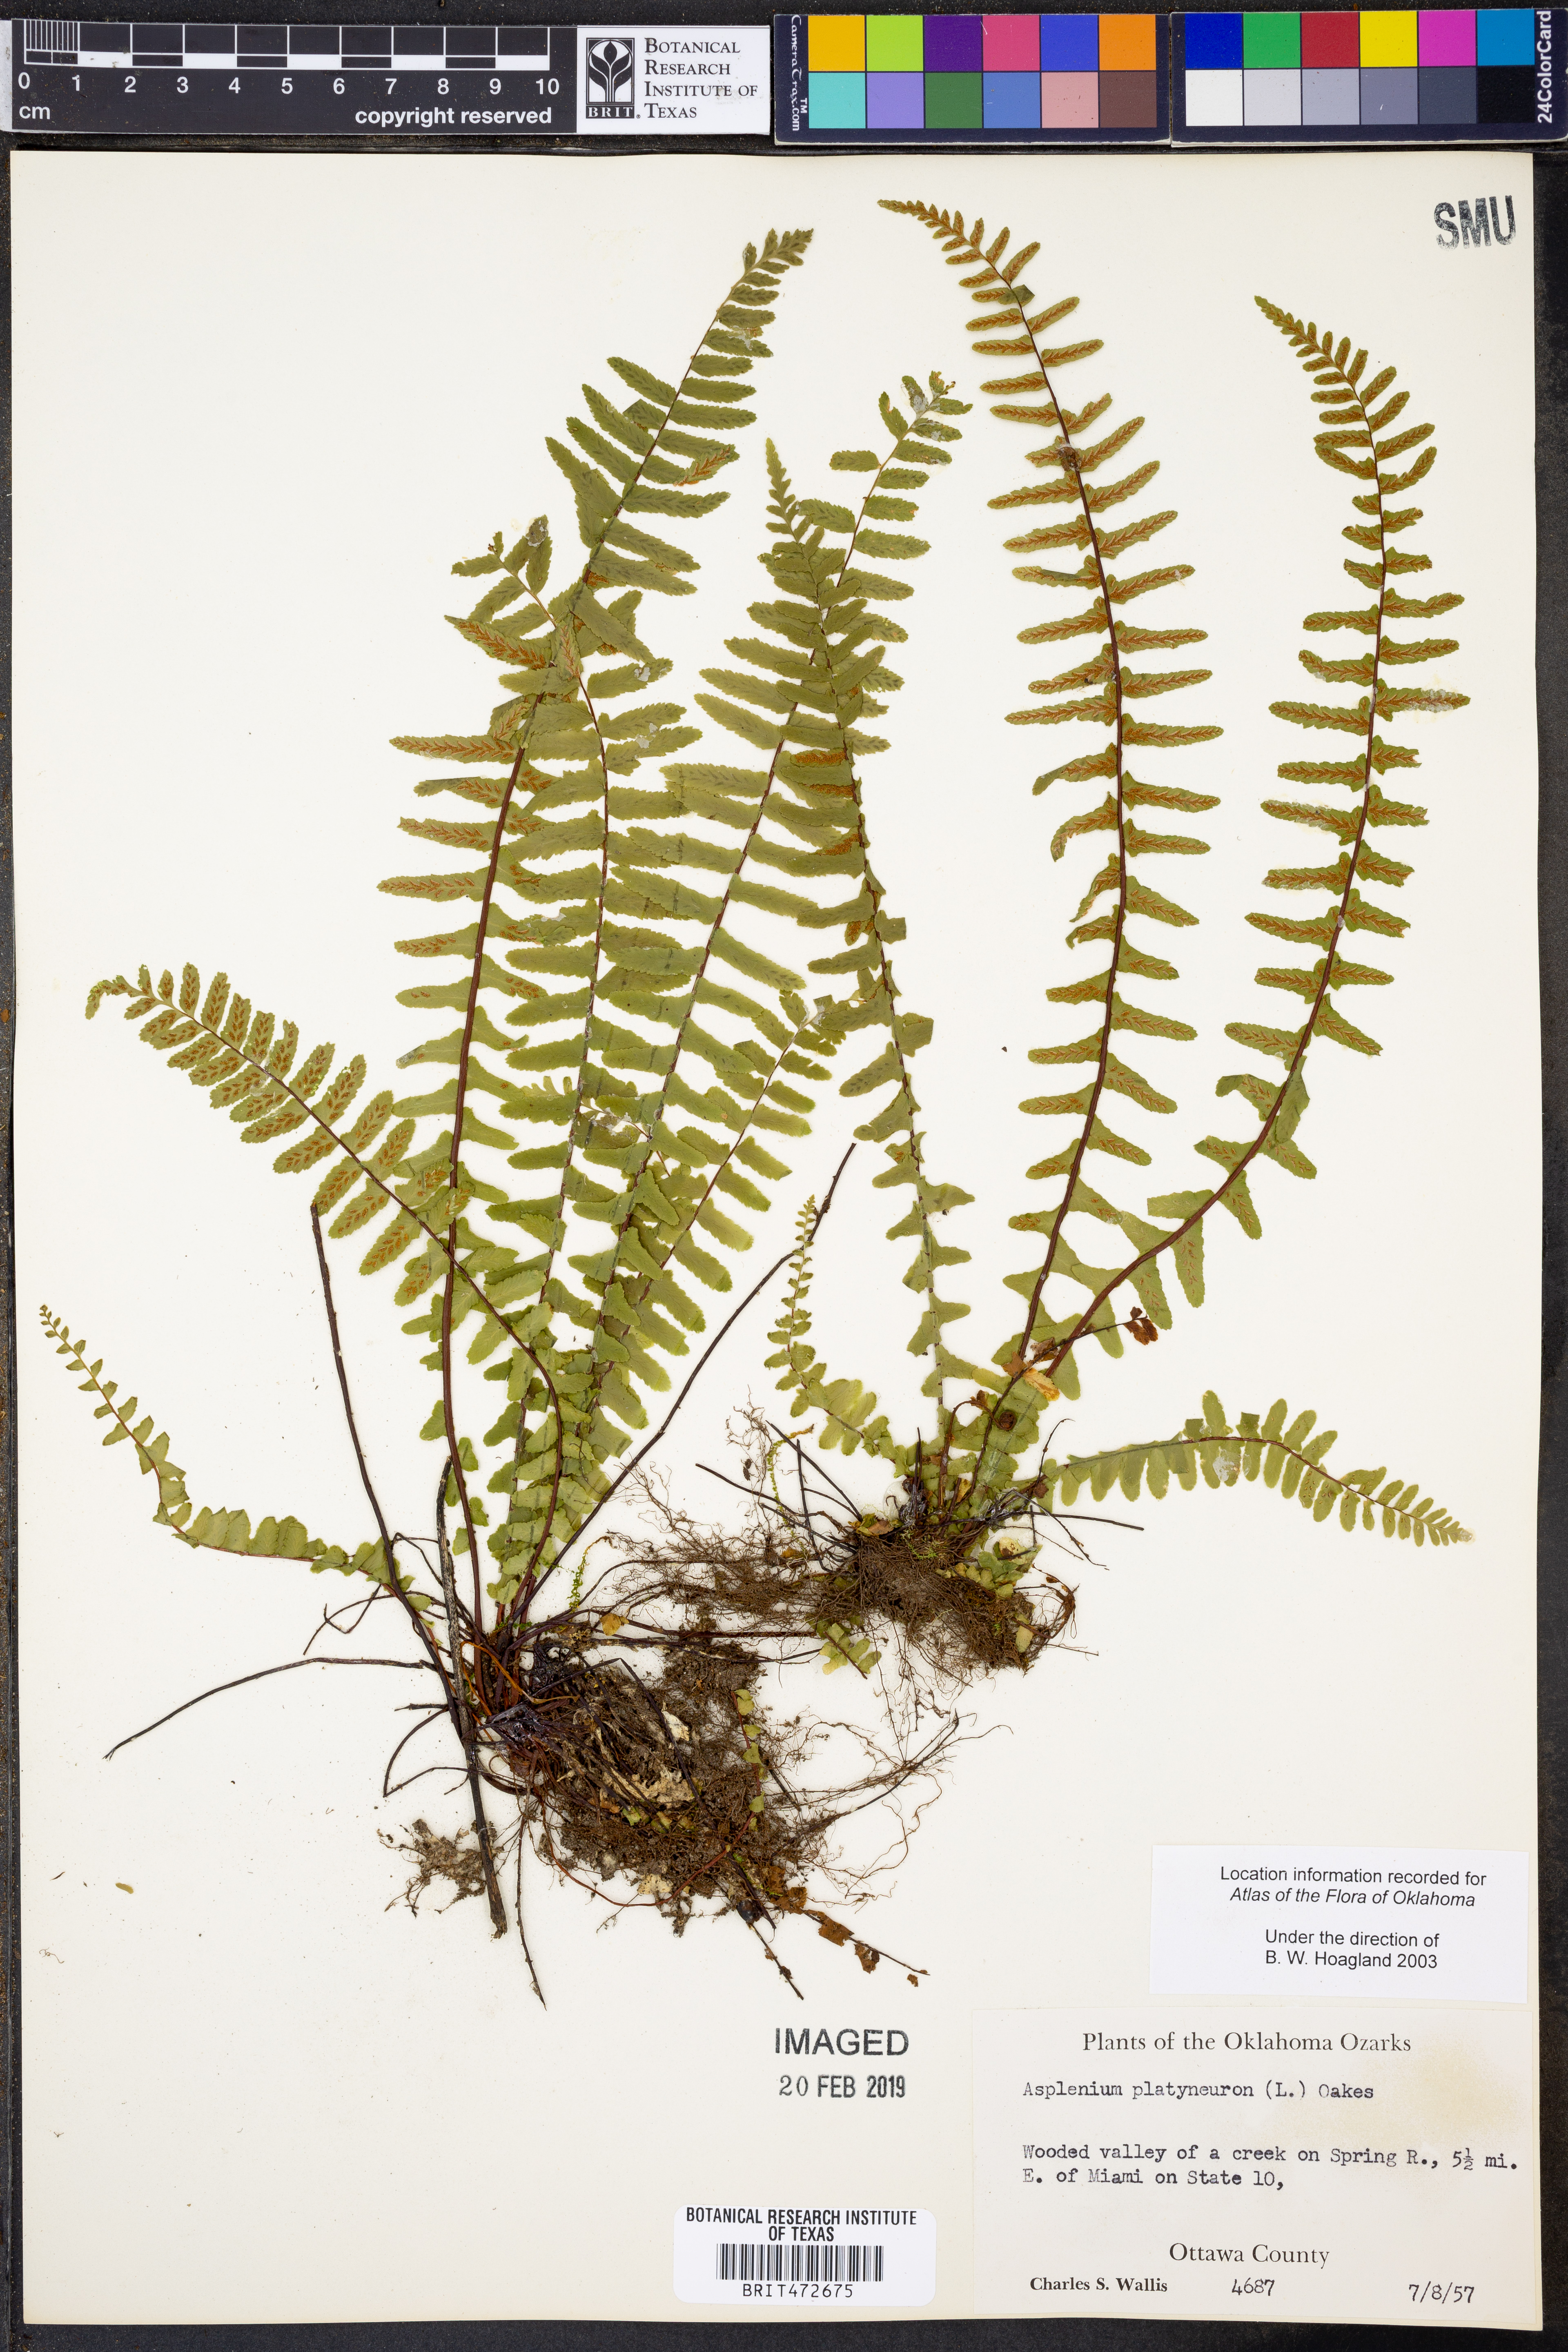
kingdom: Plantae
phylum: Tracheophyta
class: Polypodiopsida
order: Polypodiales
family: Aspleniaceae
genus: Asplenium
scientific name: Asplenium platyneuron
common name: Ebony spleenwort
